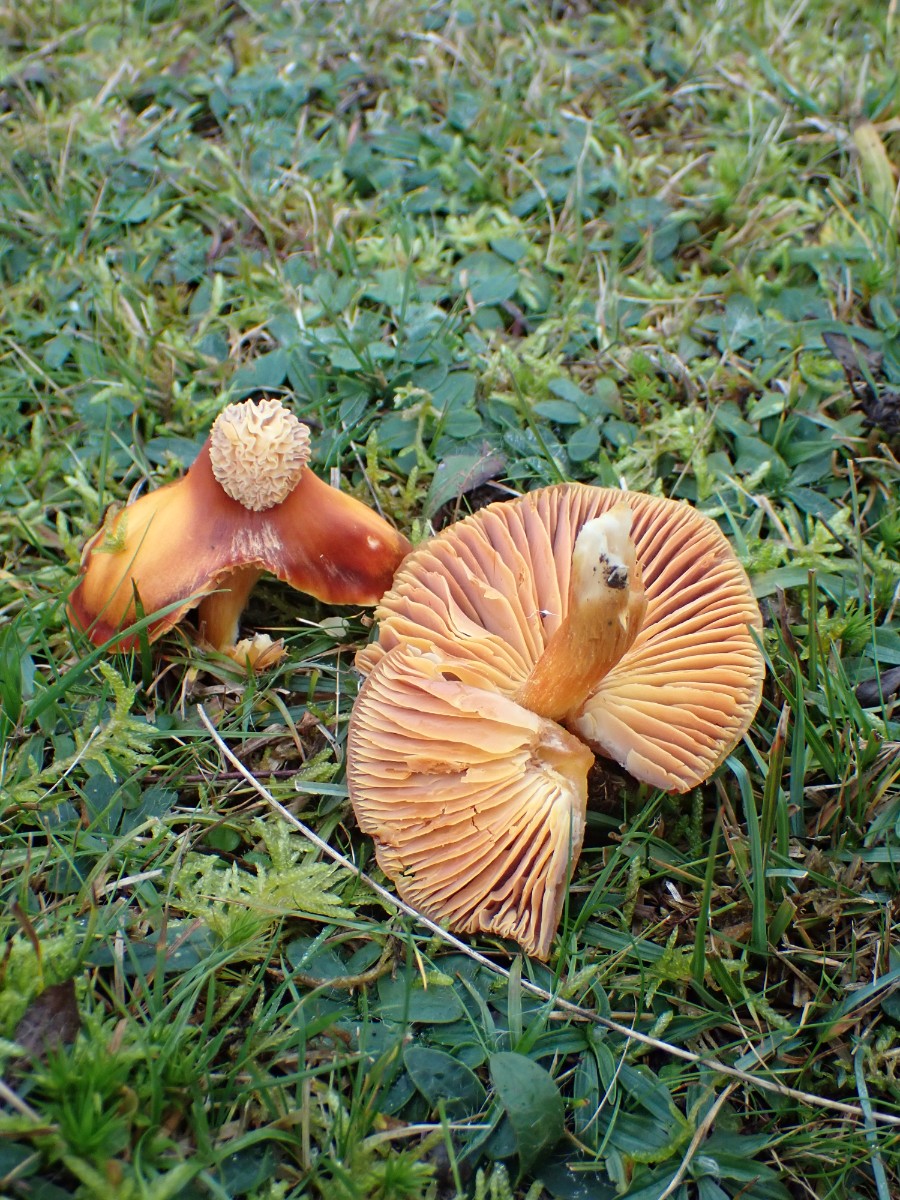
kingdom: Fungi
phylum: Basidiomycota
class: Agaricomycetes
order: Agaricales
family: Hygrophoraceae
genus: Hygrocybe
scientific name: Hygrocybe punicea
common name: skarlagen-vokshat
